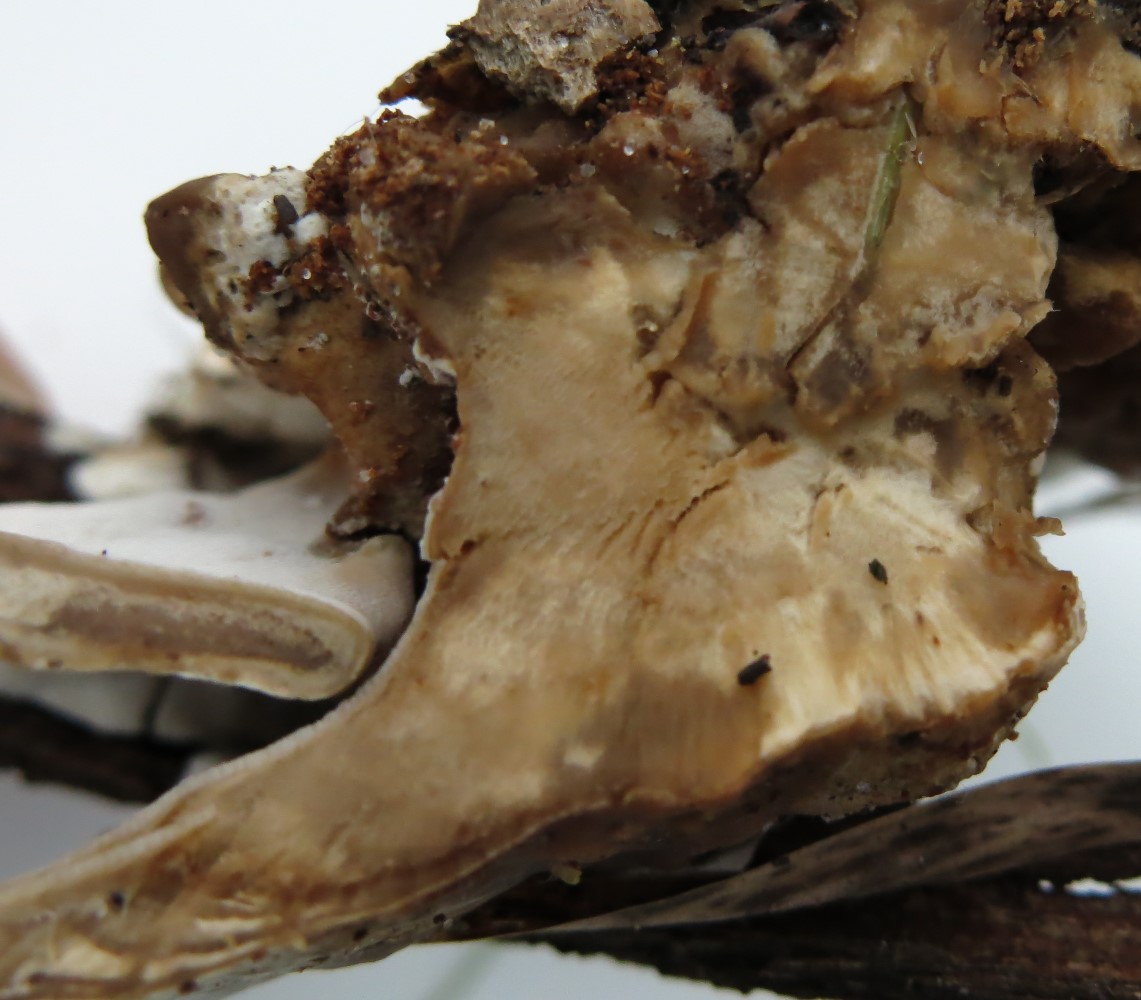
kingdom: Fungi
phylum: Basidiomycota
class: Agaricomycetes
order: Polyporales
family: Phanerochaetaceae
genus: Bjerkandera
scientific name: Bjerkandera adusta
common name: sveden sodporesvamp
